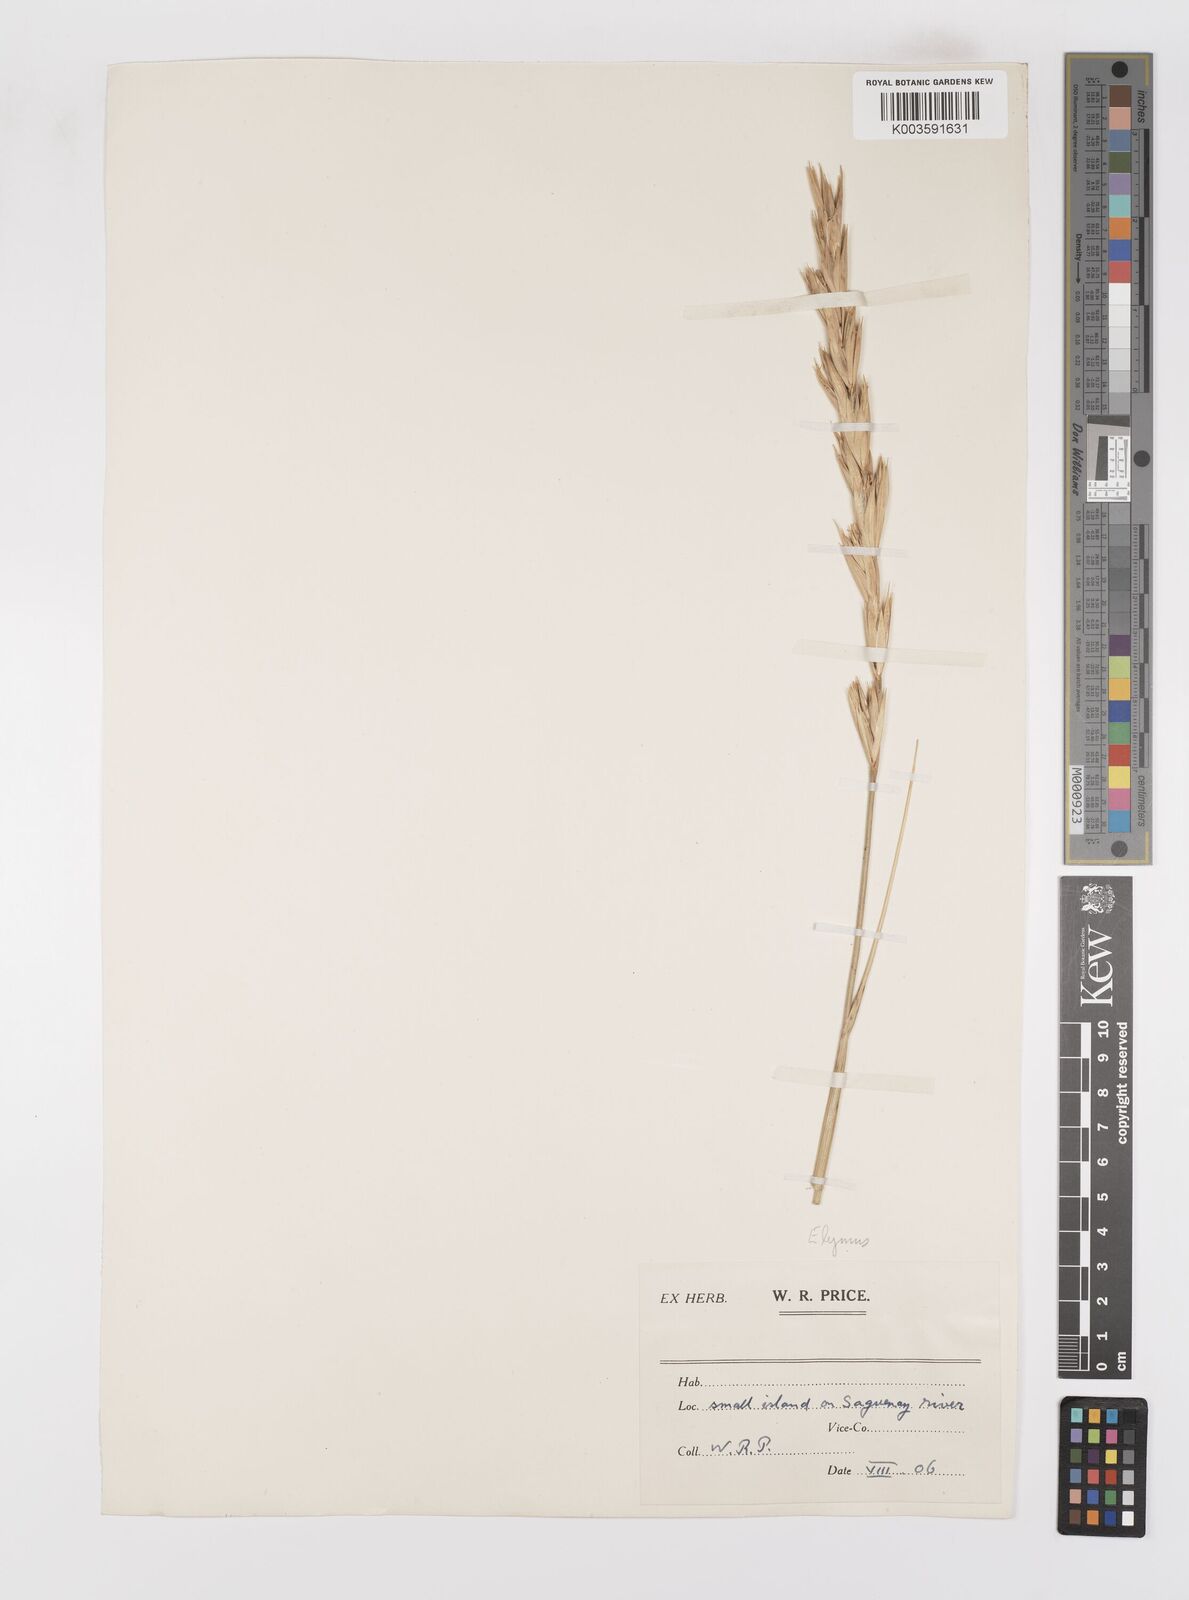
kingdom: Plantae
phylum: Tracheophyta
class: Liliopsida
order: Poales
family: Poaceae
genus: Leymus
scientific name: Leymus
